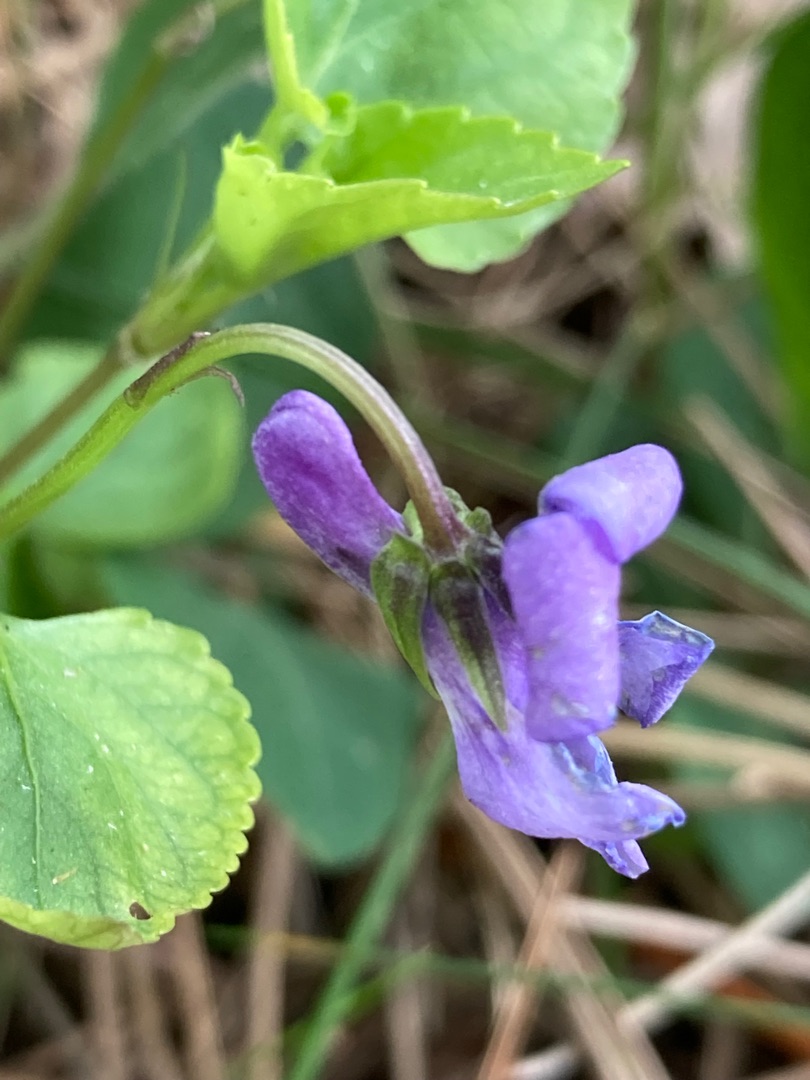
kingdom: Plantae
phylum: Tracheophyta
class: Magnoliopsida
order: Malpighiales
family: Violaceae
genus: Viola
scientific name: Viola reichenbachiana
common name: Skov-viol
